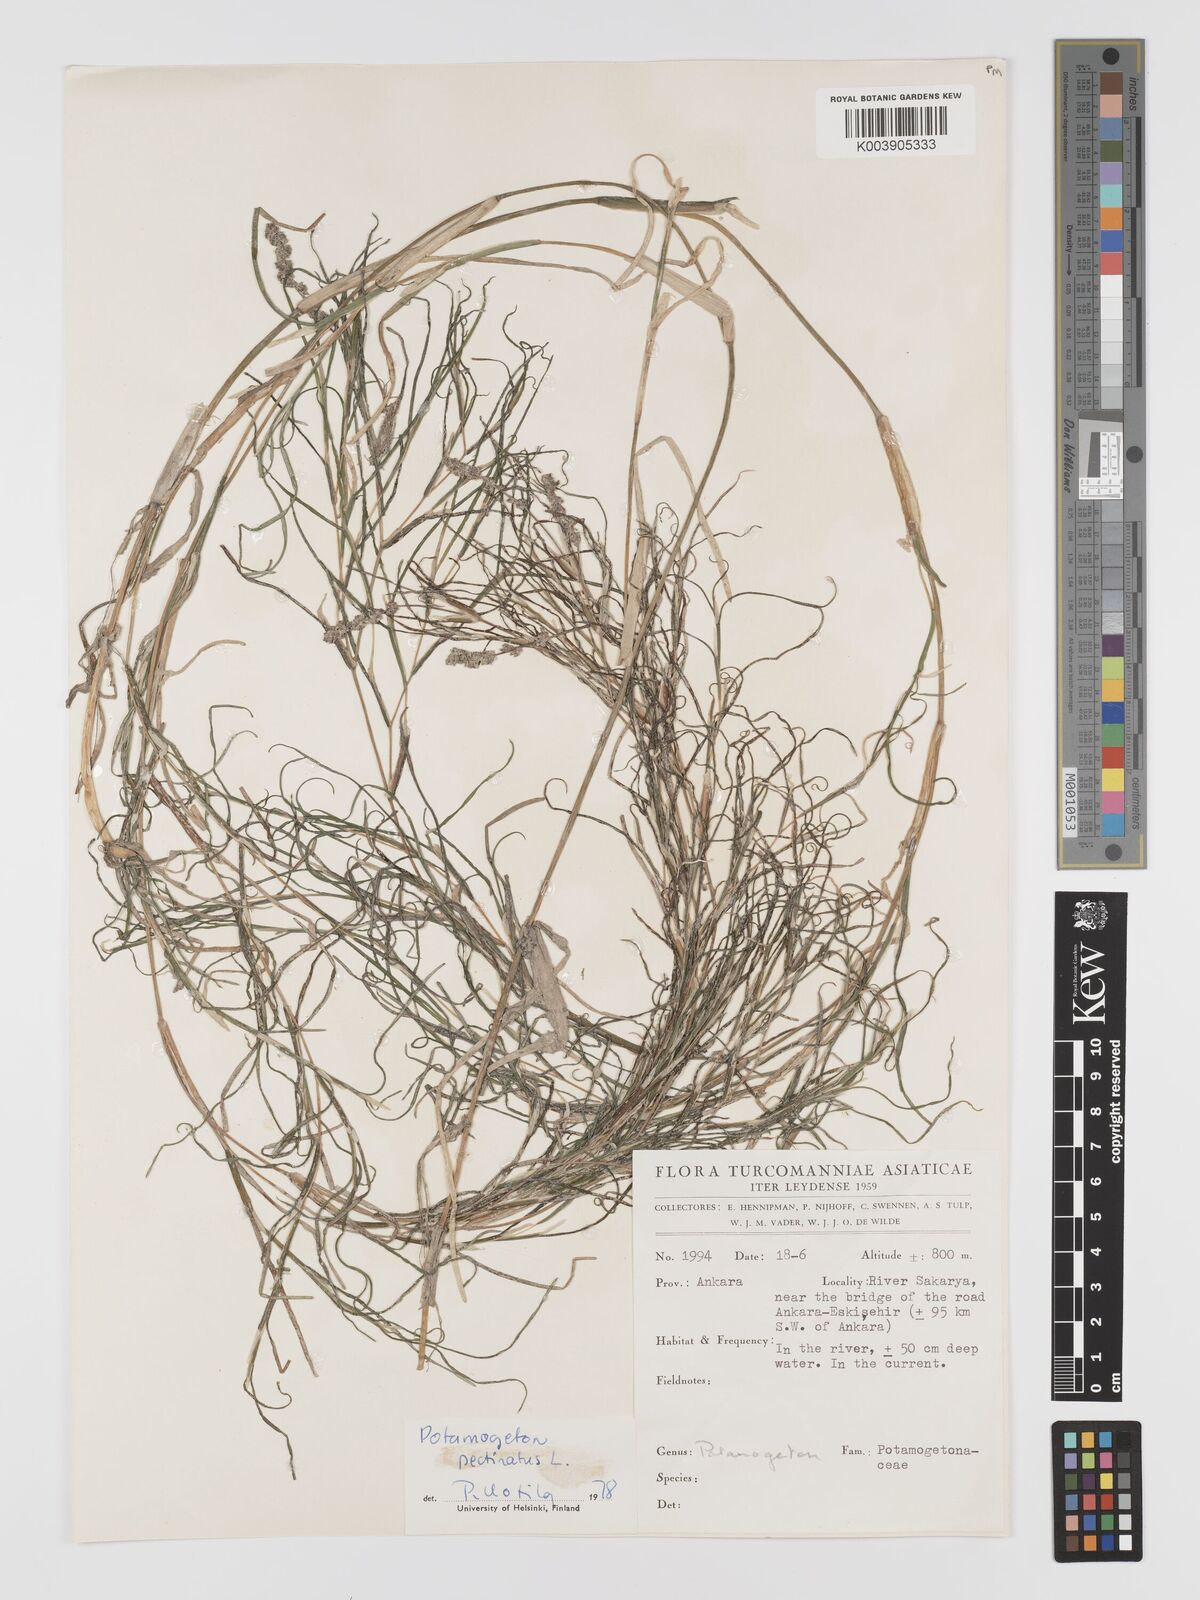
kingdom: Plantae
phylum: Tracheophyta
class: Liliopsida
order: Alismatales
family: Potamogetonaceae
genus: Stuckenia
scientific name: Stuckenia pectinata
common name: Sago pondweed
